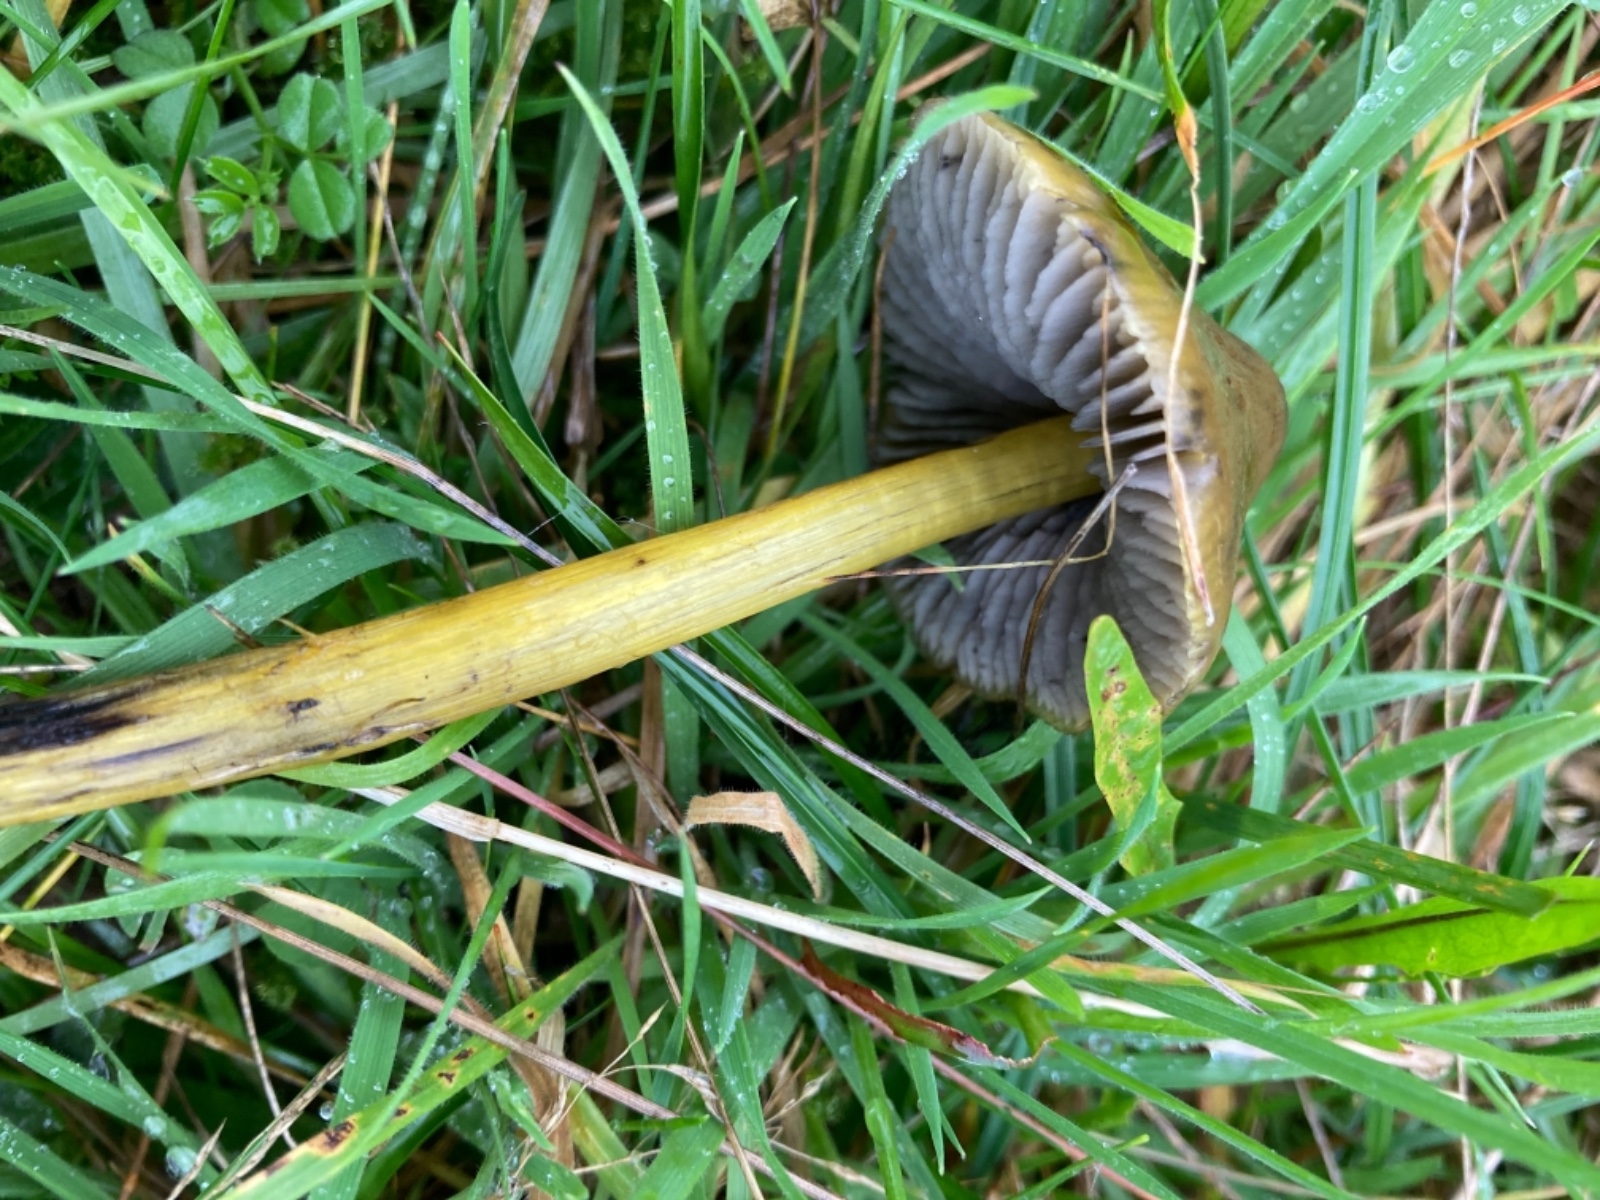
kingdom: Fungi
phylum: Basidiomycota
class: Agaricomycetes
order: Agaricales
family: Hygrophoraceae
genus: Hygrocybe
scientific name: Hygrocybe conica
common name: kegle-vokshat
